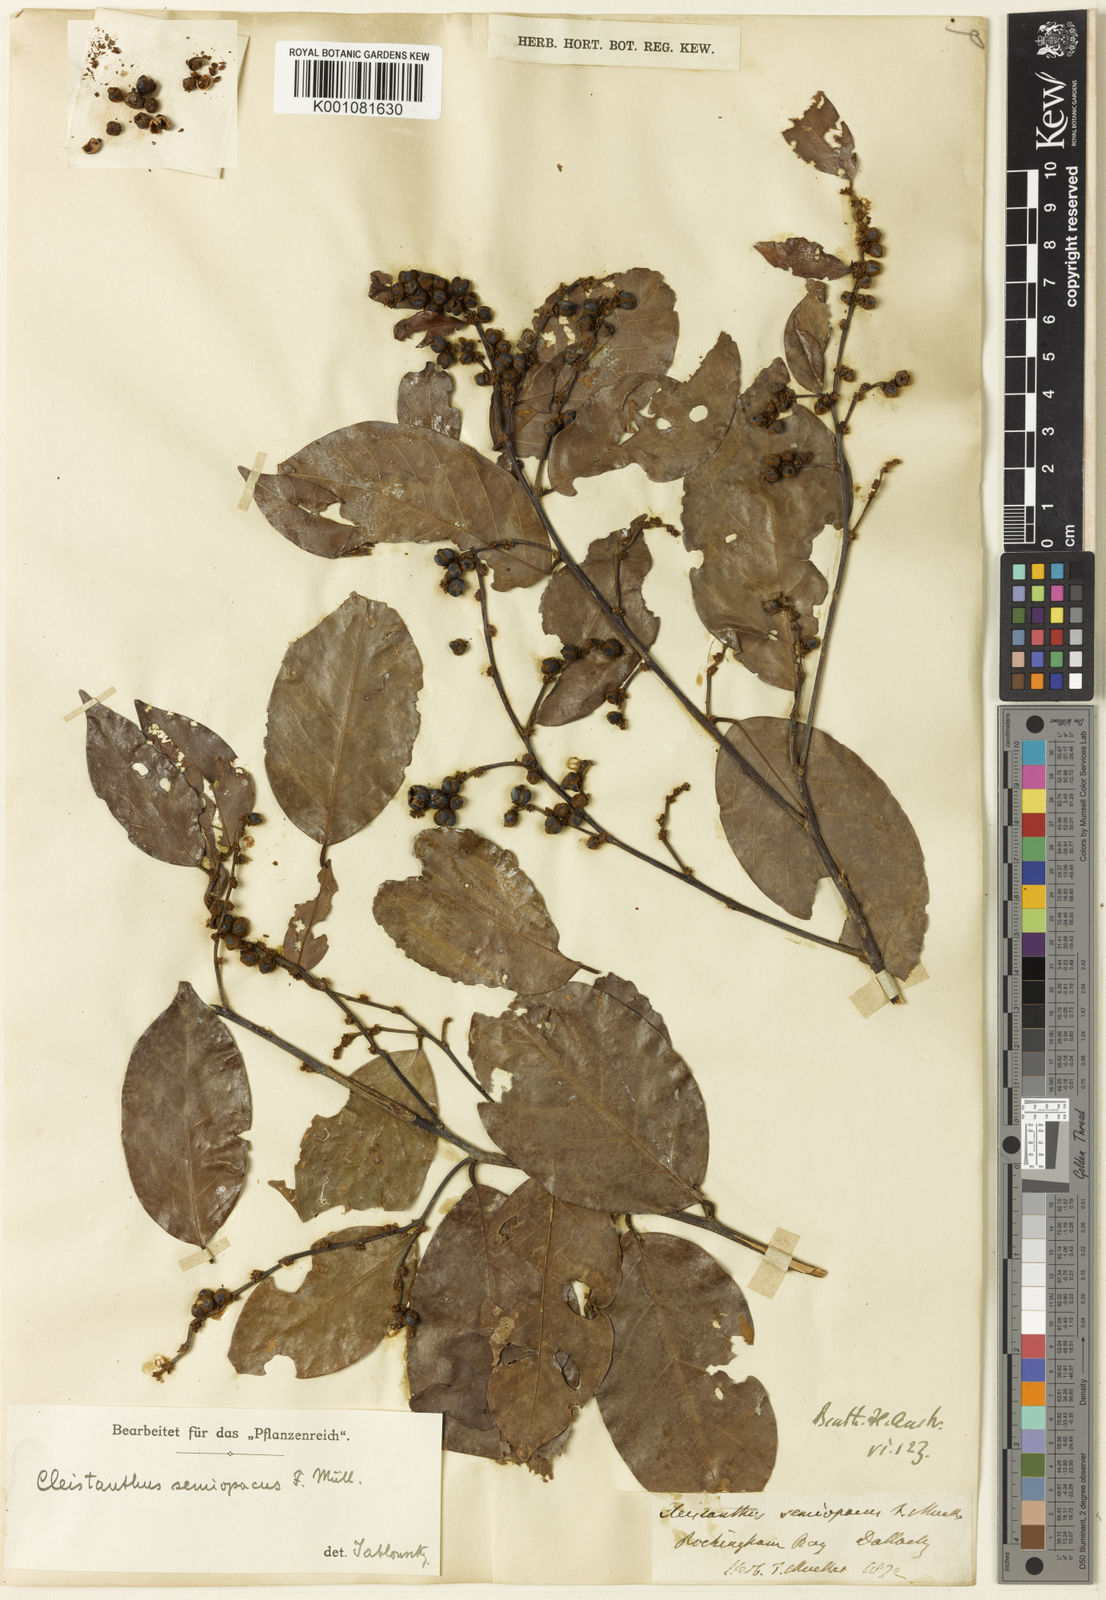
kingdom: Plantae
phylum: Tracheophyta
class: Magnoliopsida
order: Malpighiales
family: Phyllanthaceae
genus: Cleistanthus
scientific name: Cleistanthus semiopacus
